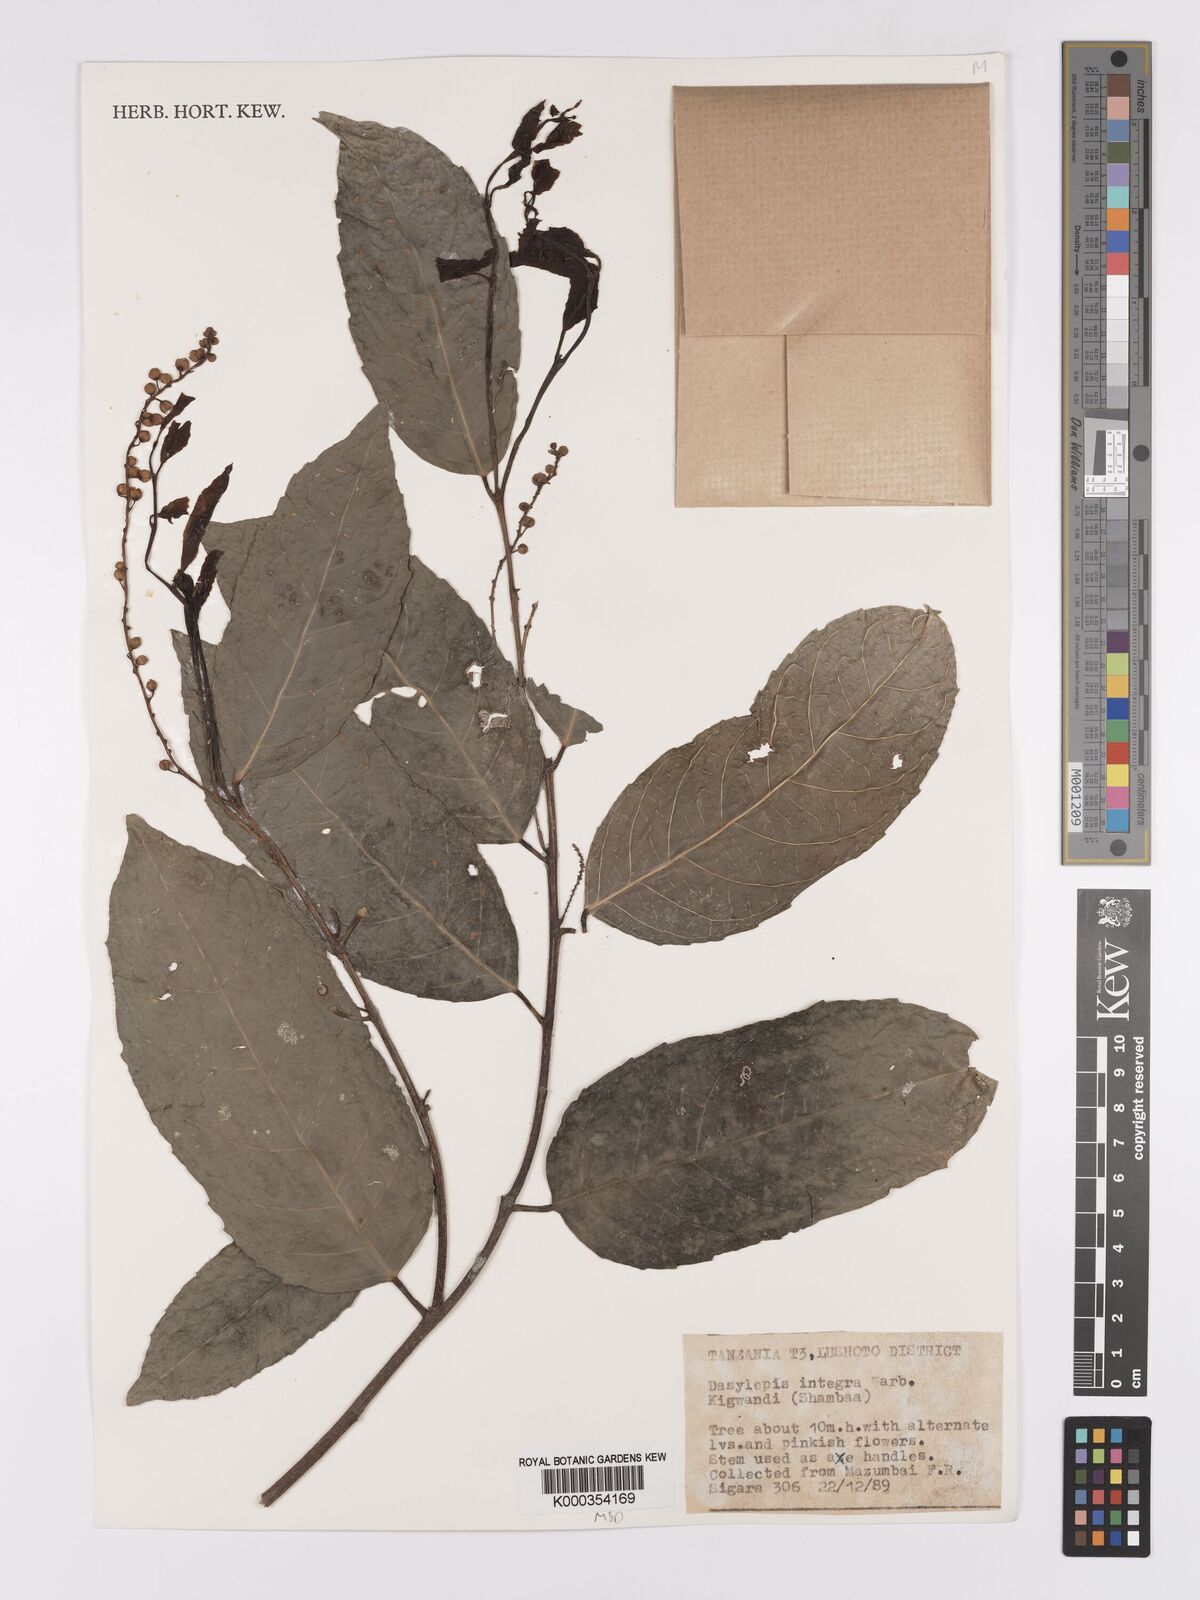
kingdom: Plantae
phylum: Tracheophyta
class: Magnoliopsida
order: Malpighiales
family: Achariaceae
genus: Dasylepis
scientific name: Dasylepis integra
